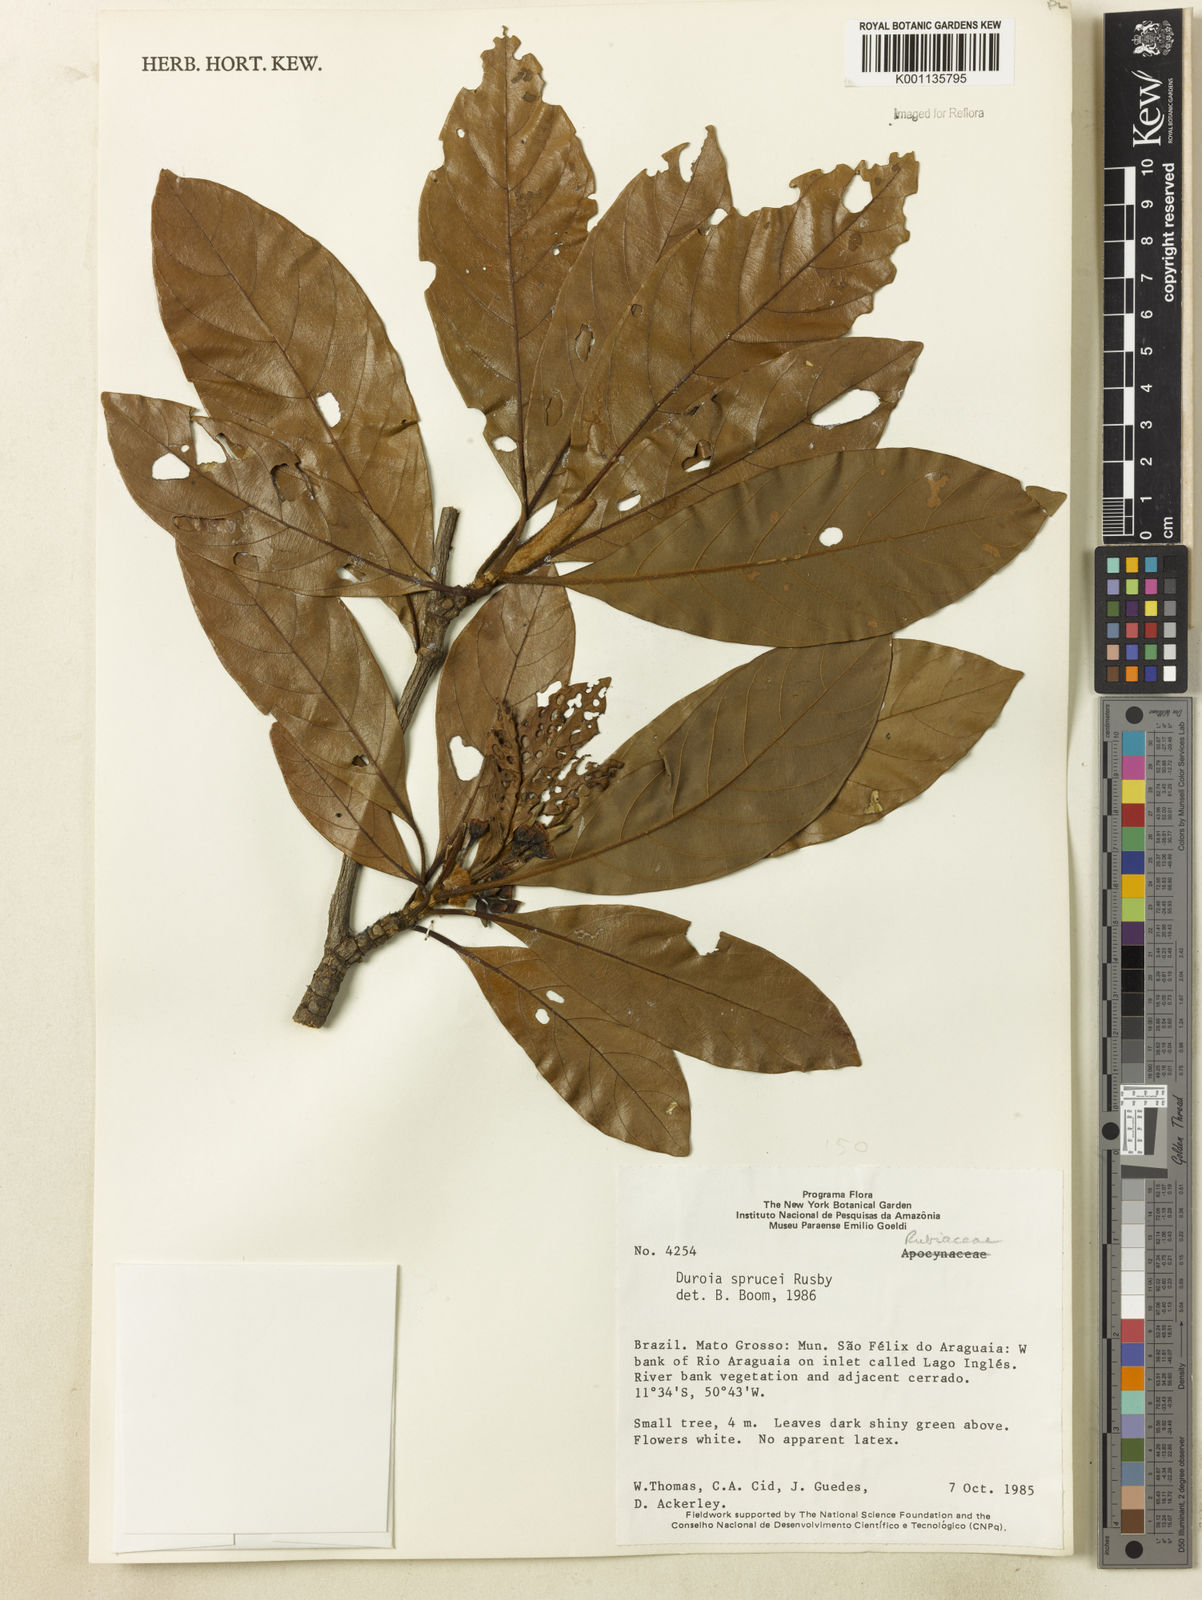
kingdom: Plantae
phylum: Tracheophyta
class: Magnoliopsida
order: Gentianales
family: Rubiaceae
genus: Duroia
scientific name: Duroia micrantha
